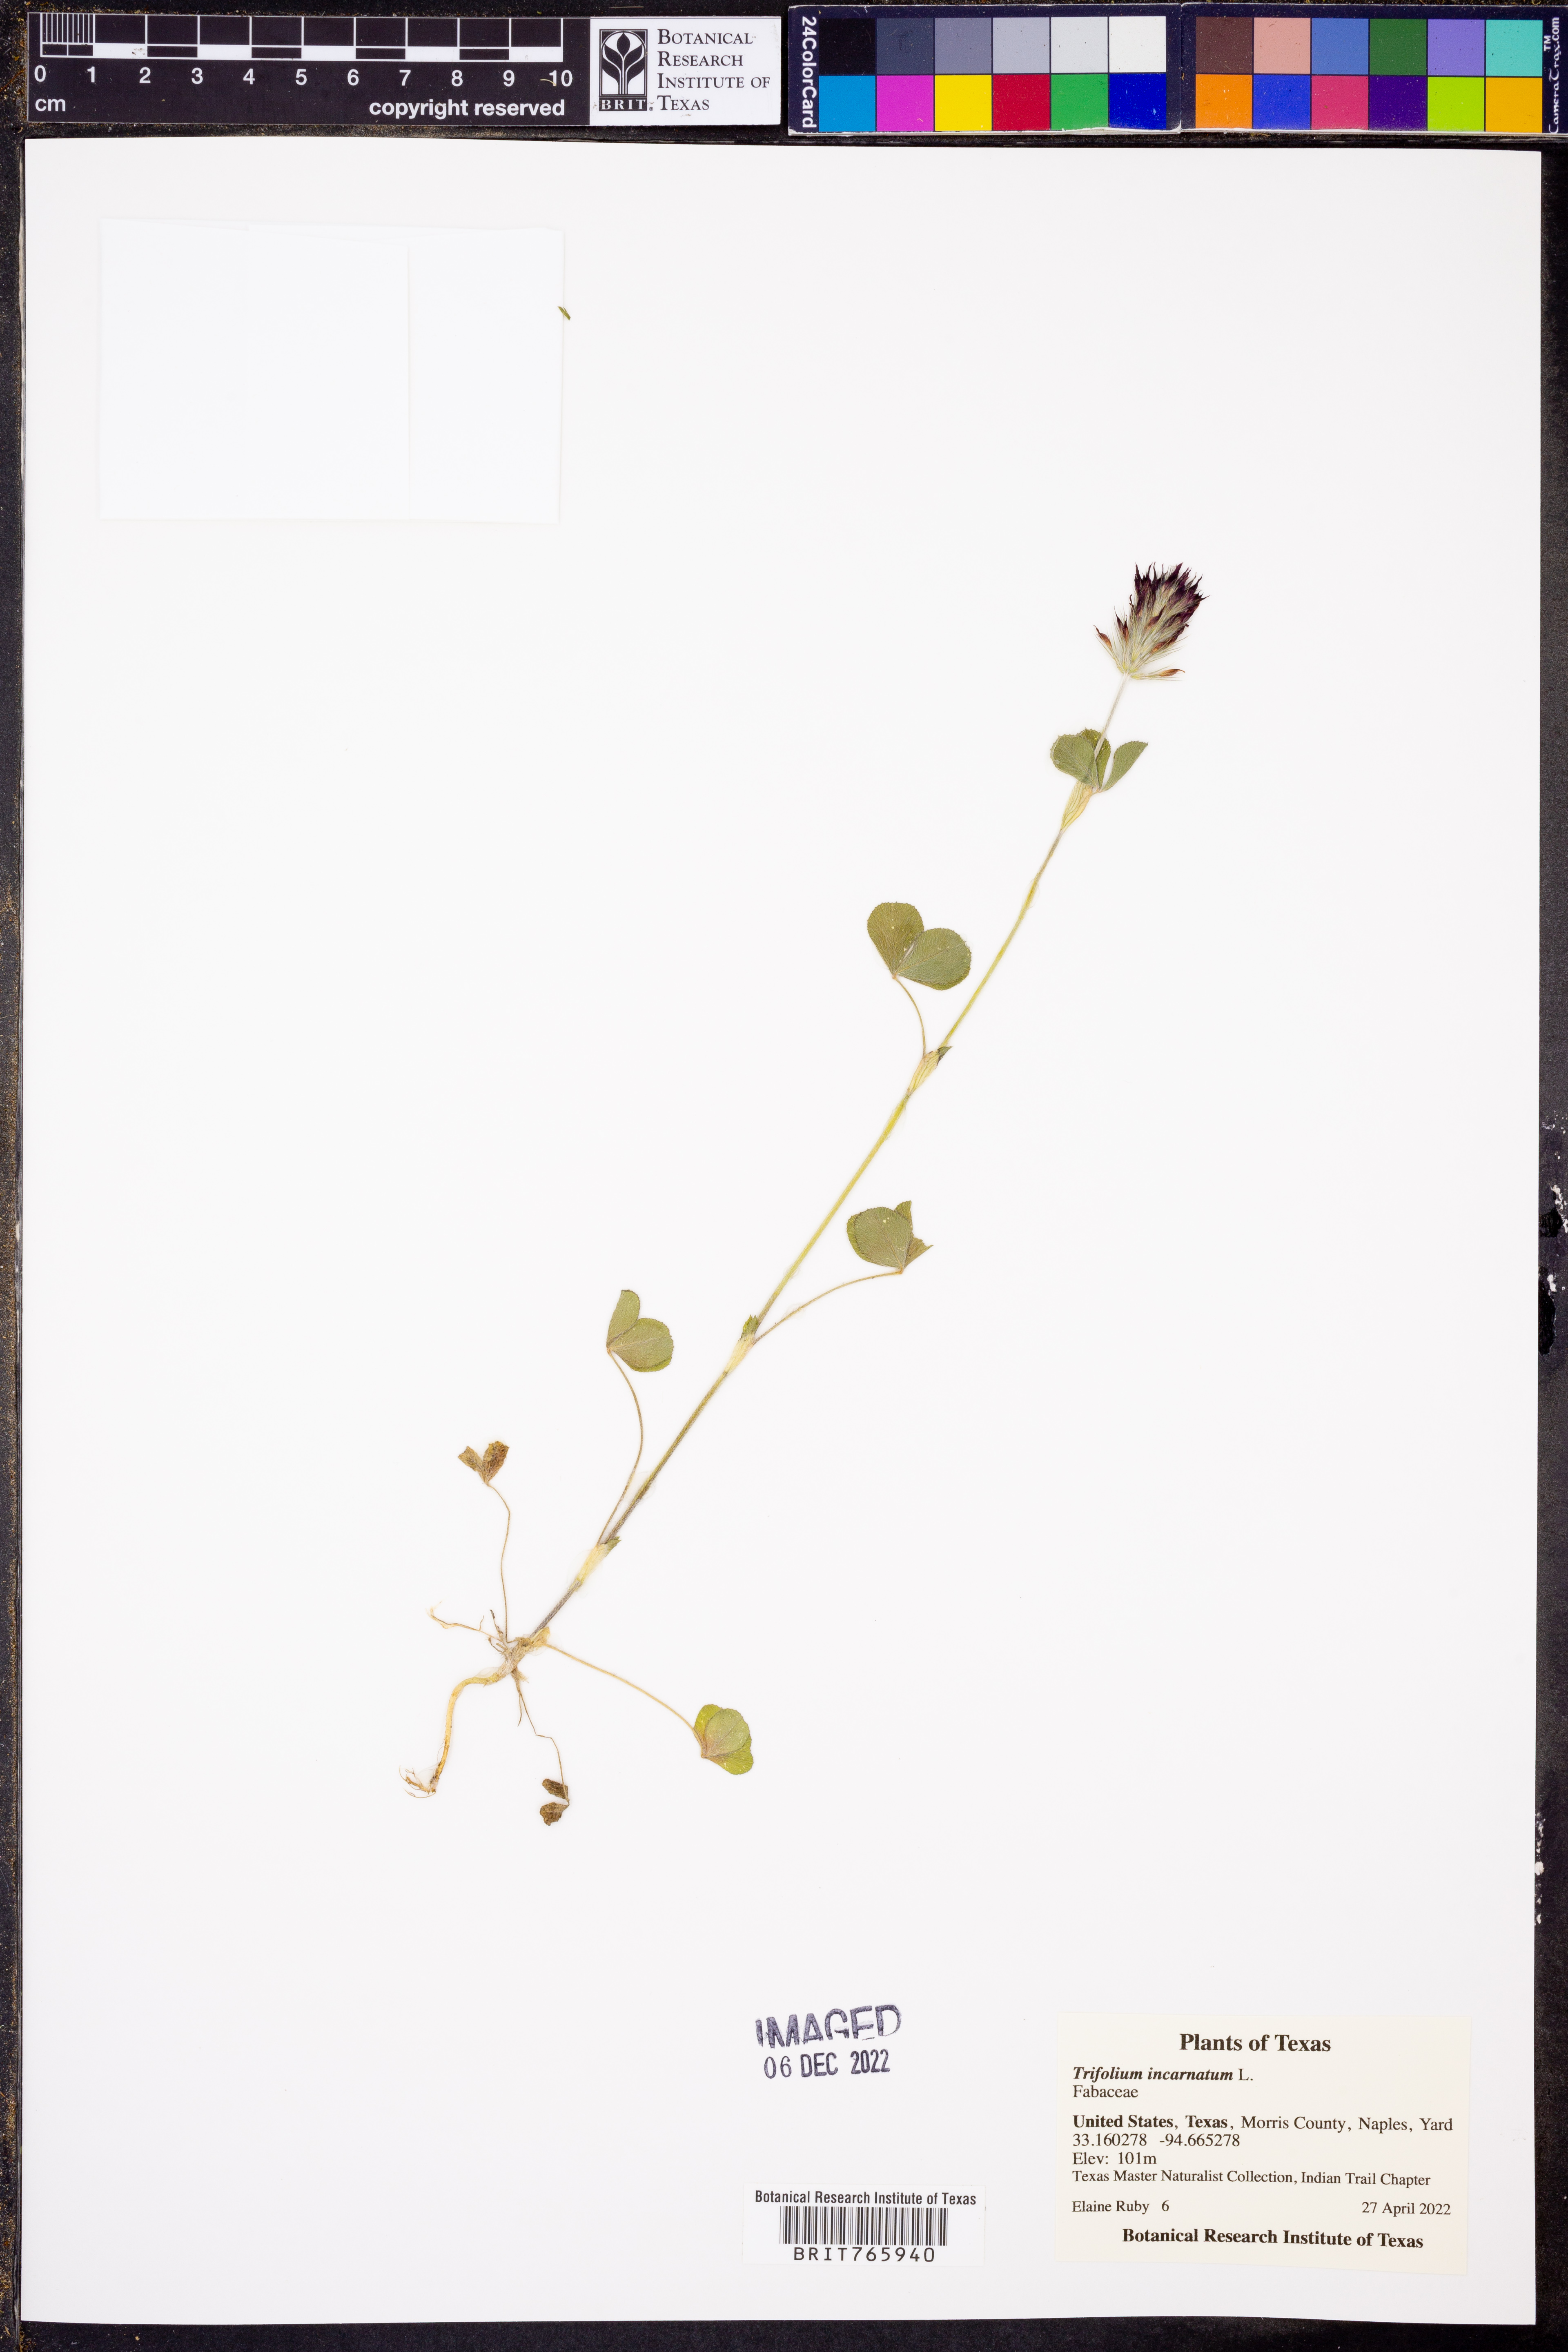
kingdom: Plantae
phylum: Tracheophyta
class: Magnoliopsida
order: Fabales
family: Fabaceae
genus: Trifolium
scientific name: Trifolium incarnatum
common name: Crimson clover
